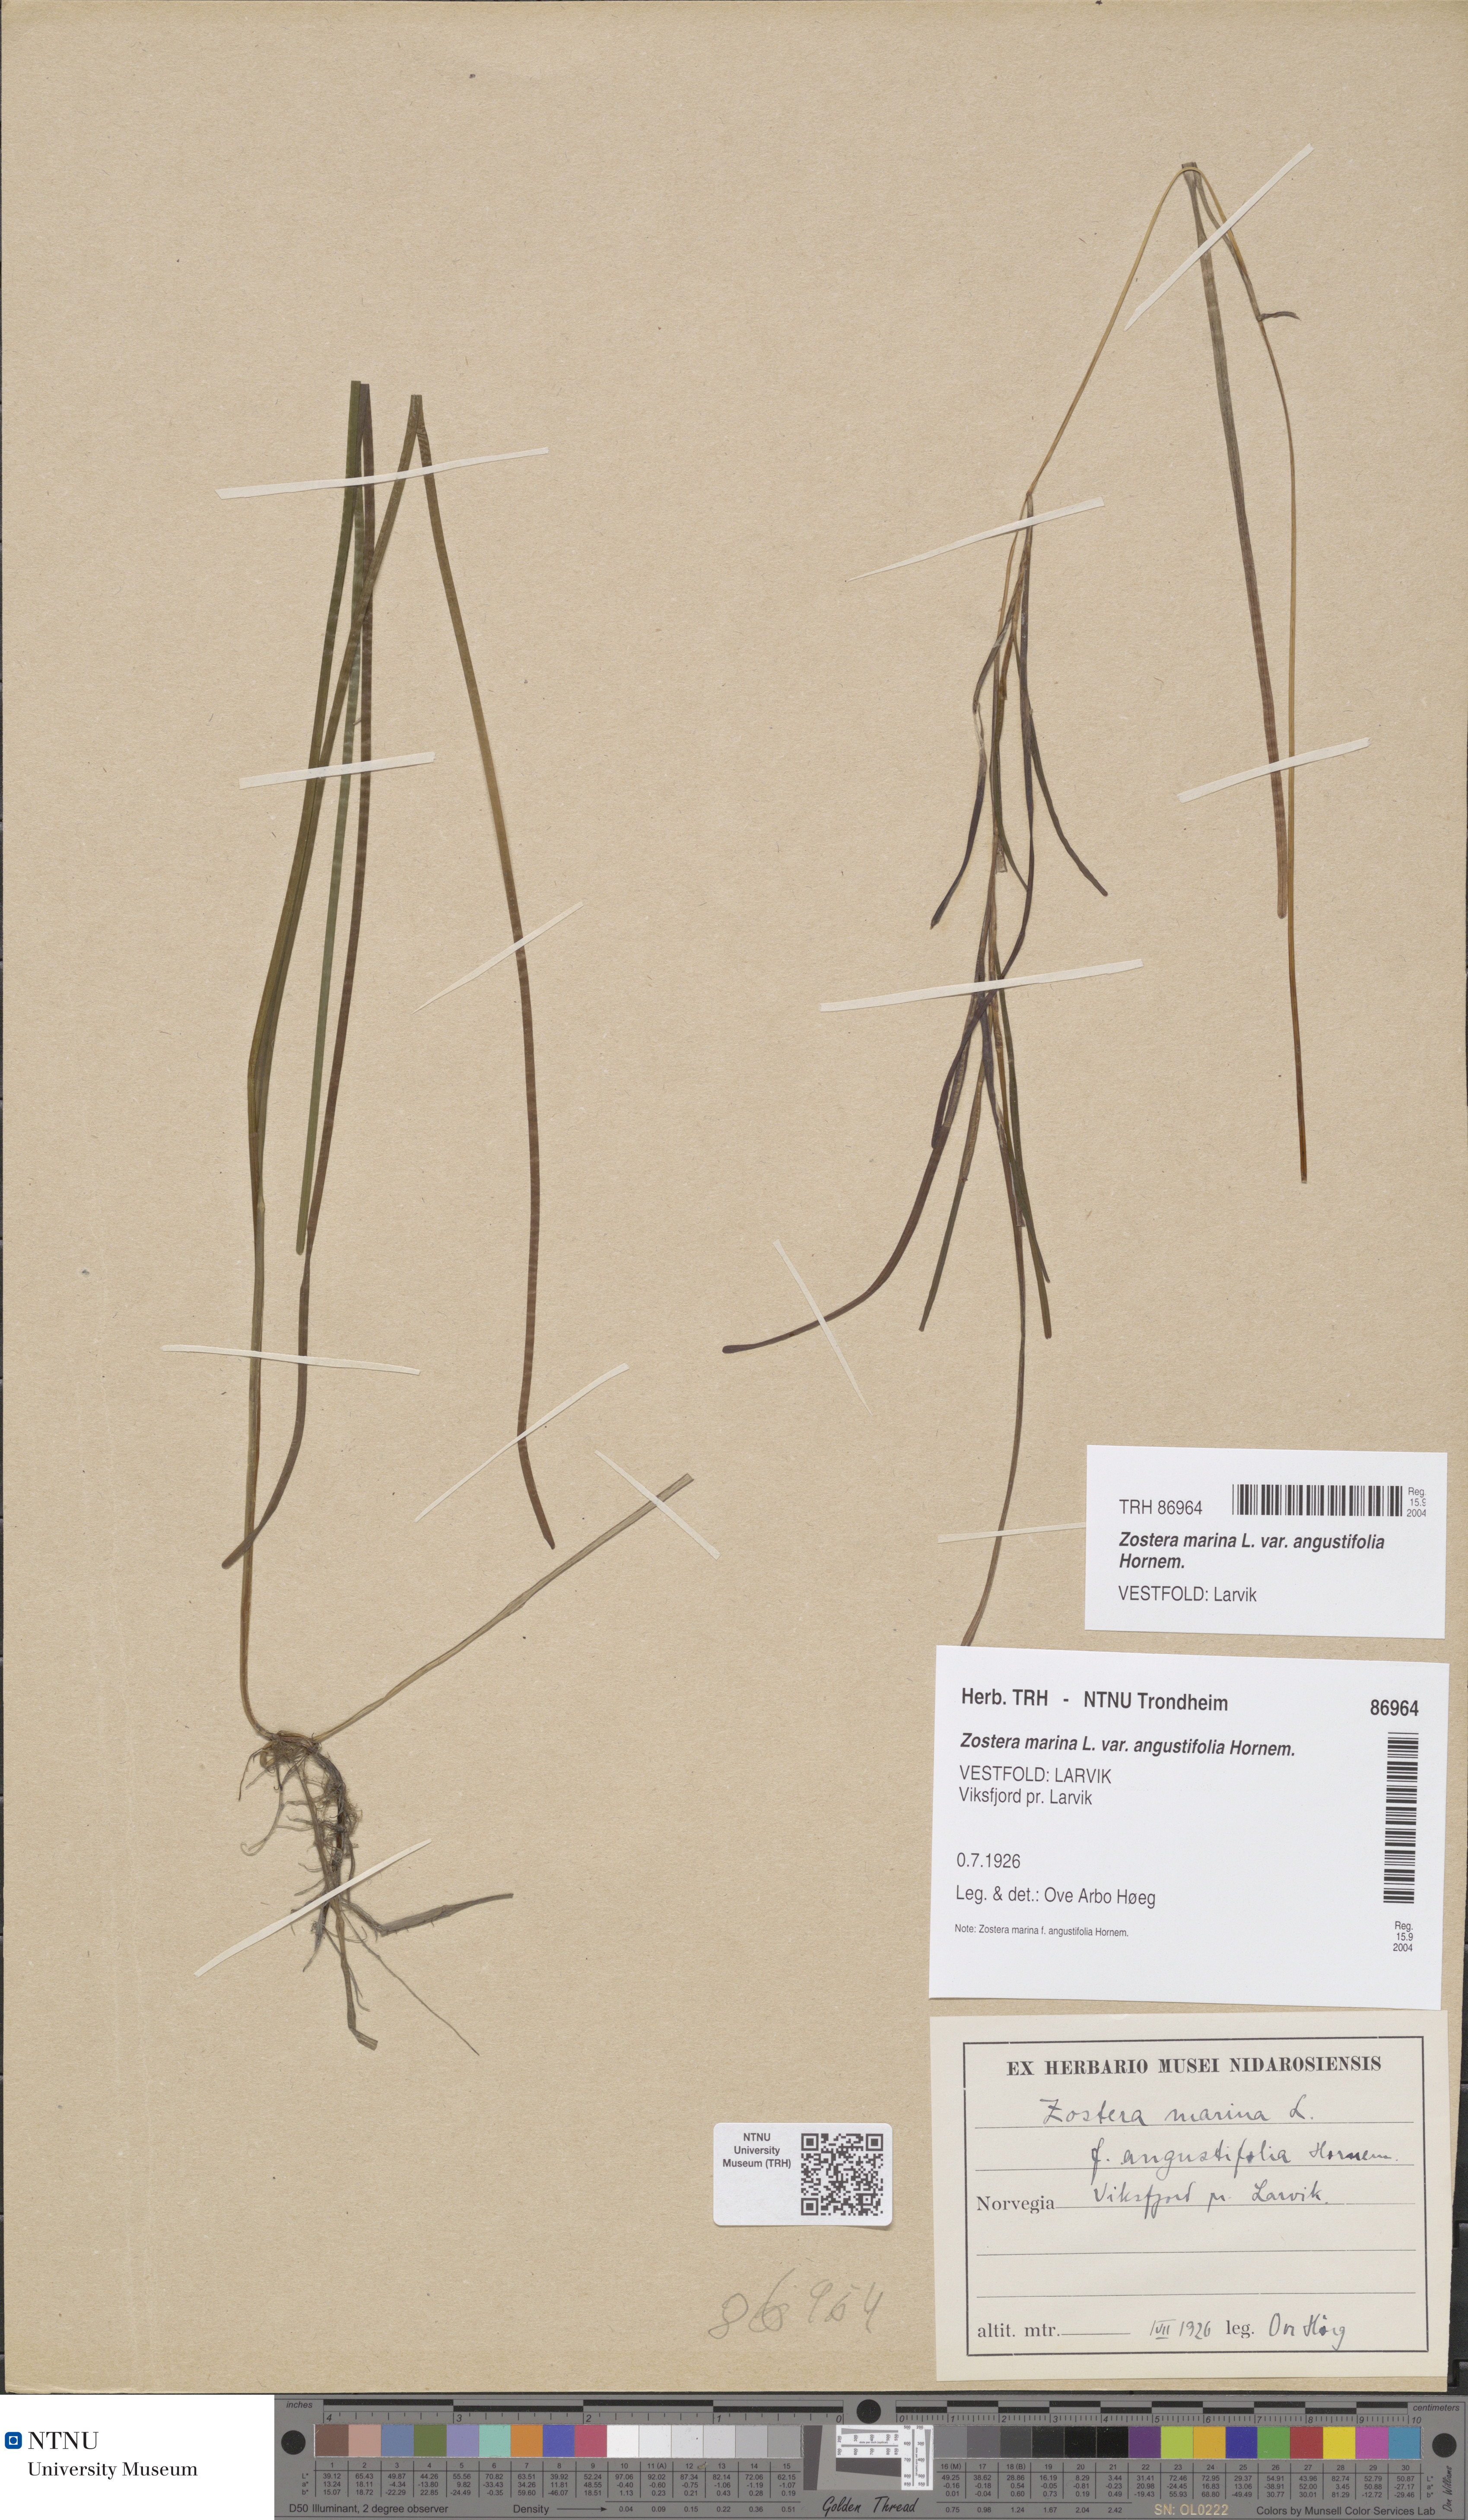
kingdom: Plantae
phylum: Tracheophyta
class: Liliopsida
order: Alismatales
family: Zosteraceae
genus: Zostera
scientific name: Zostera angustifolia
